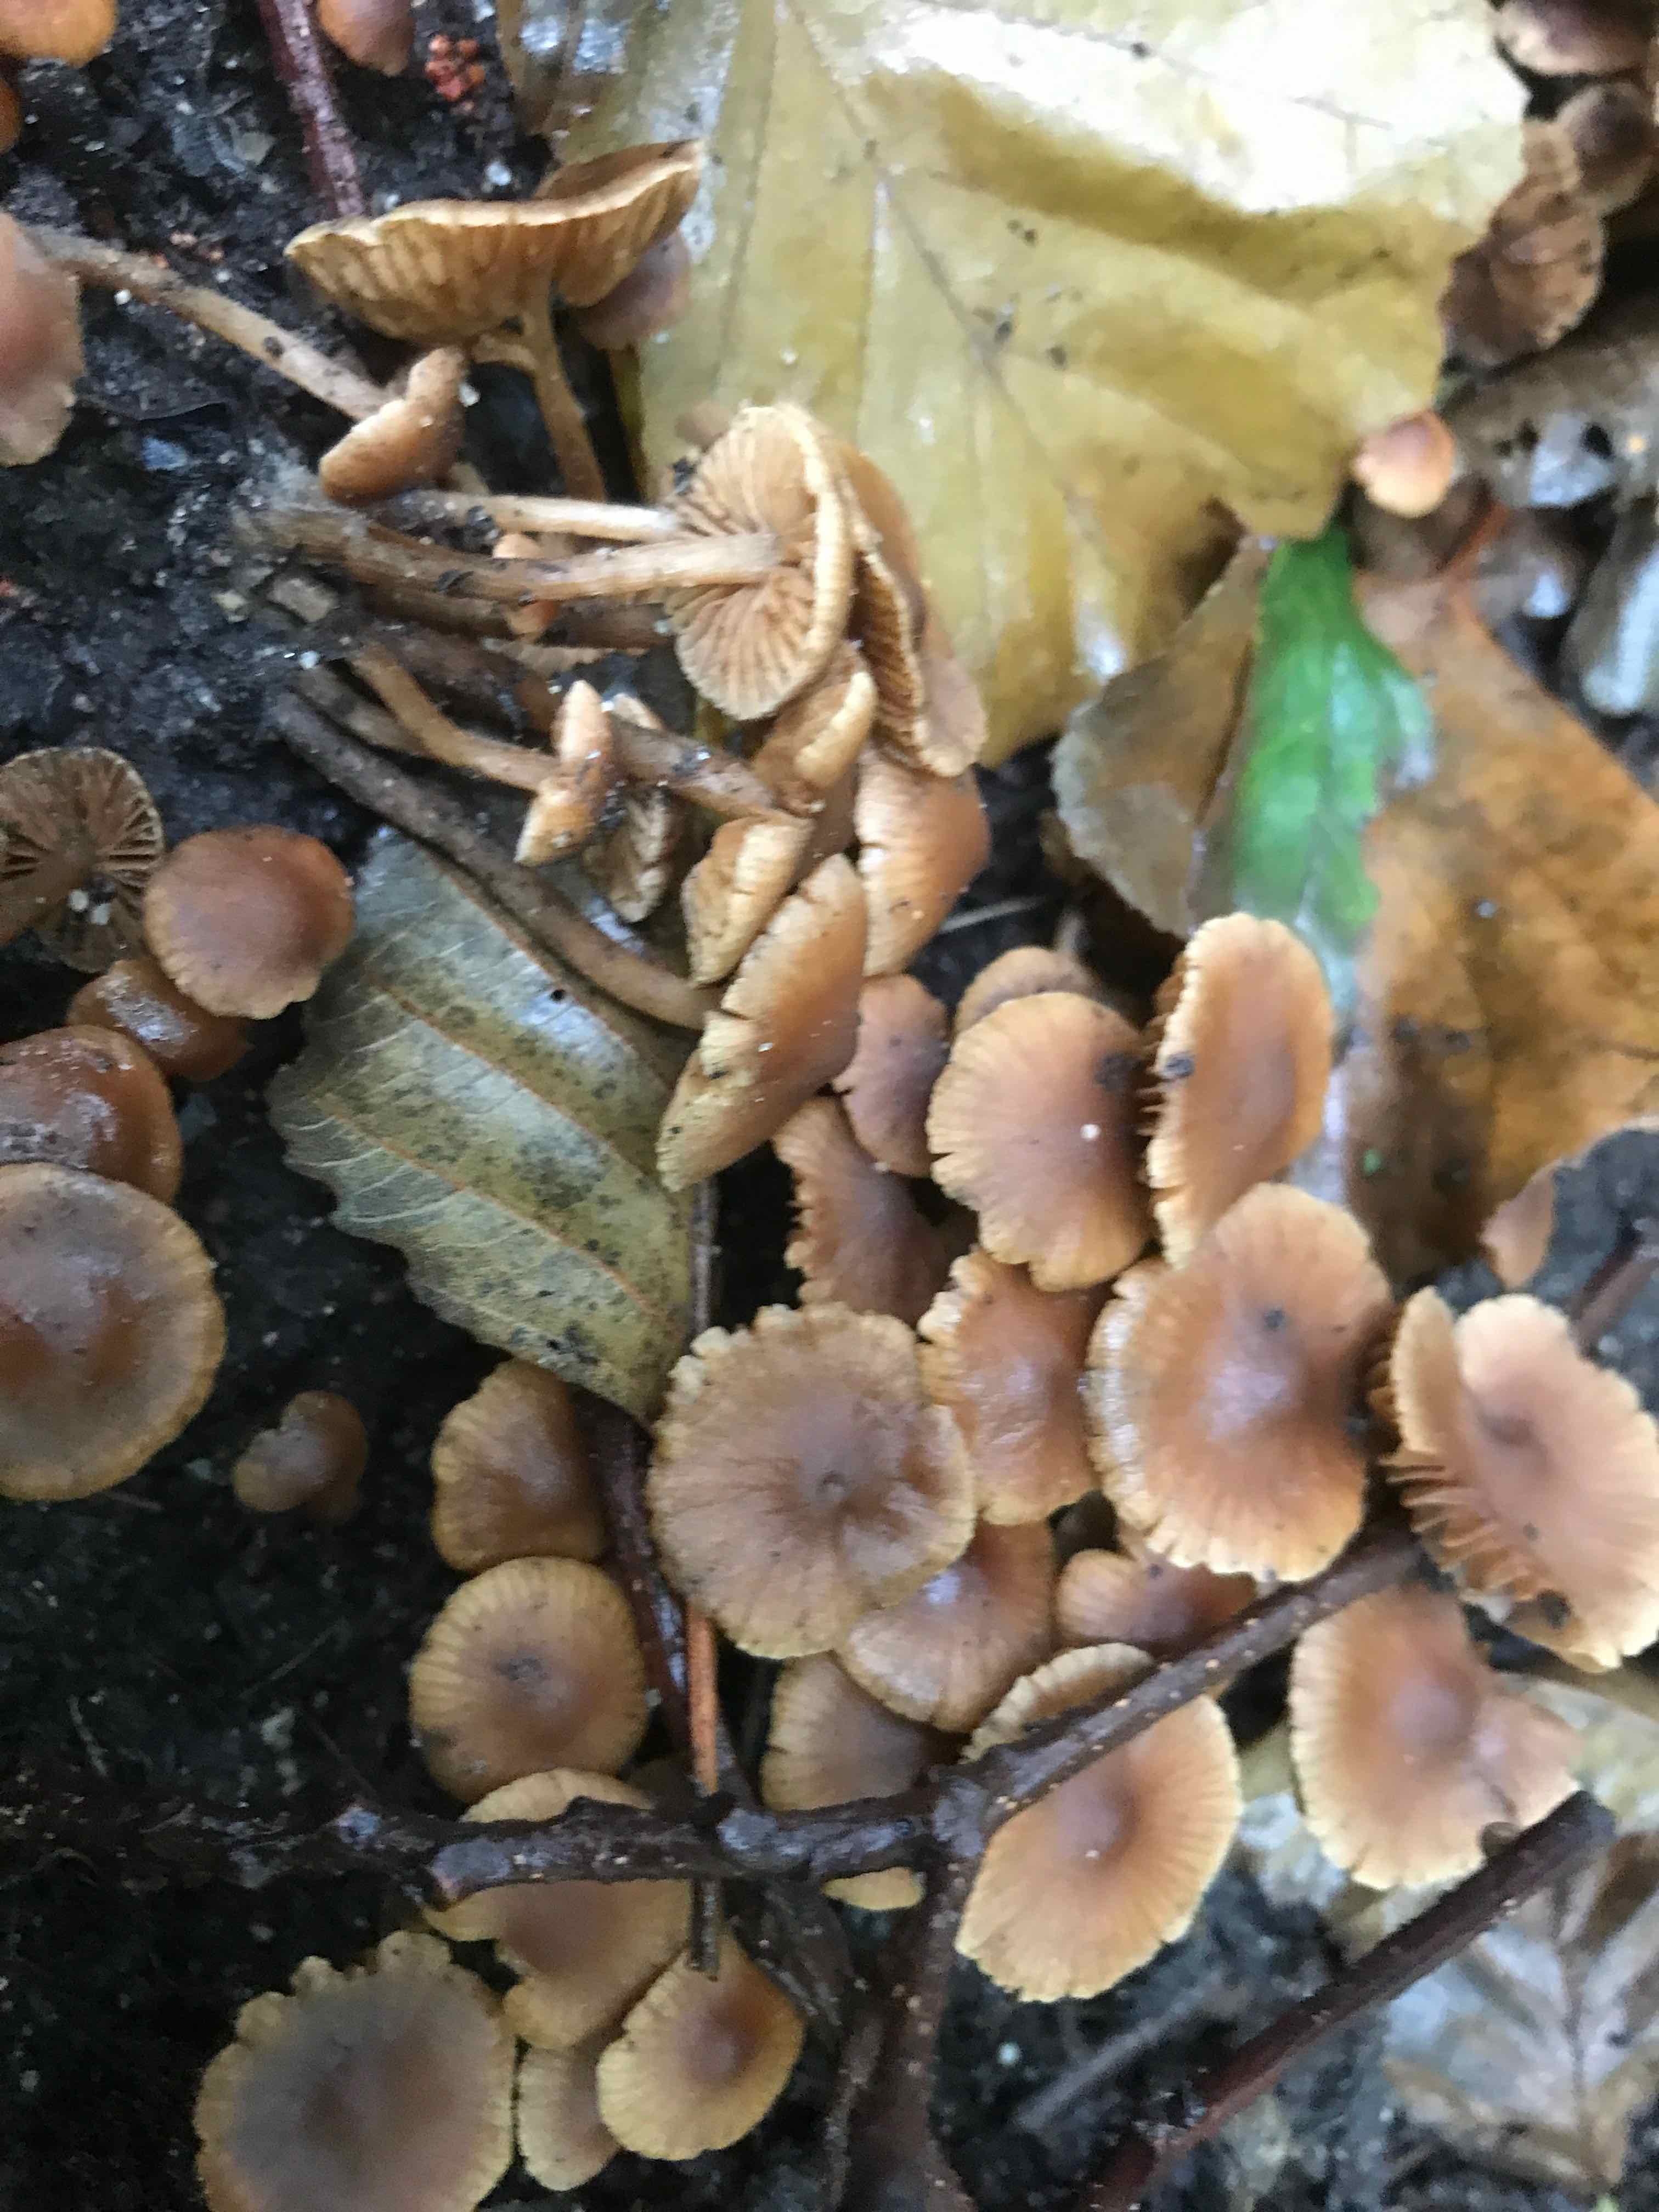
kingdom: Fungi
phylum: Basidiomycota
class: Agaricomycetes
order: Agaricales
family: Hymenogastraceae
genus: Naucoria
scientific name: Naucoria scolecina
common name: mørk elle-knaphat
